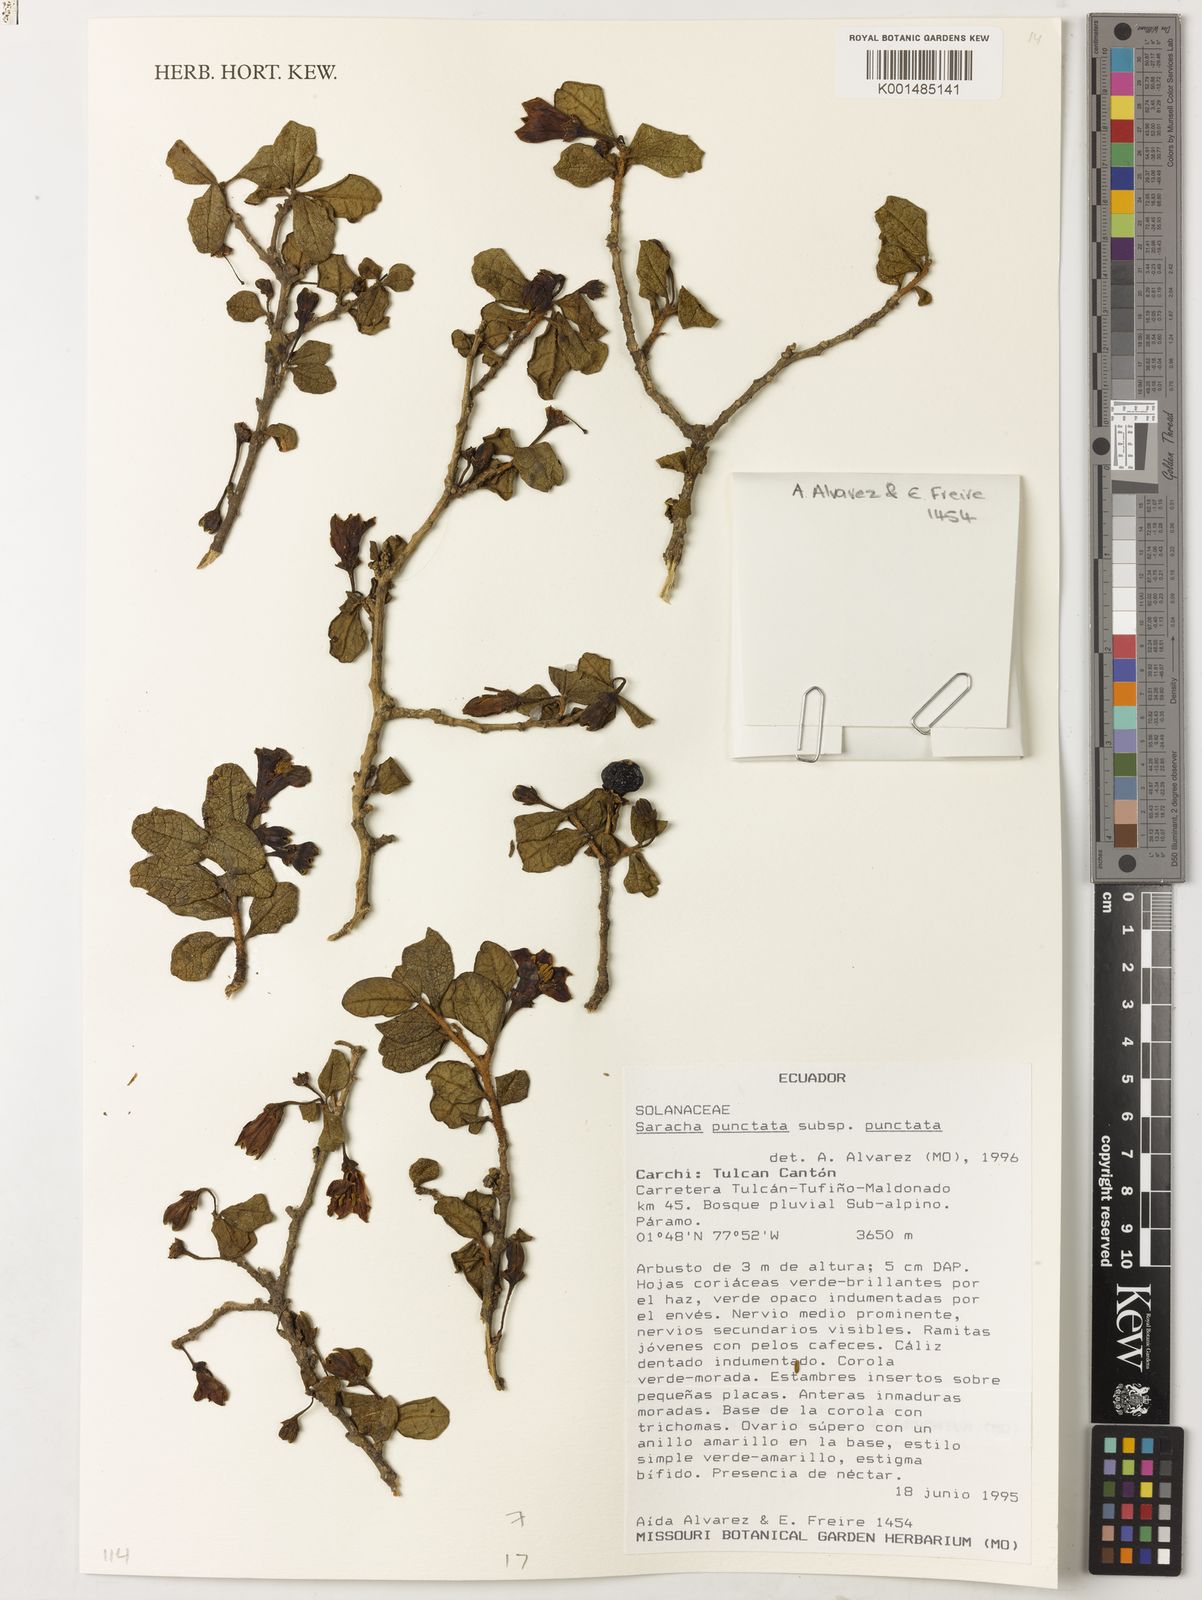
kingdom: Plantae
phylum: Tracheophyta
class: Magnoliopsida
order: Solanales
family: Solanaceae
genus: Saracha
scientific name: Saracha punctata
